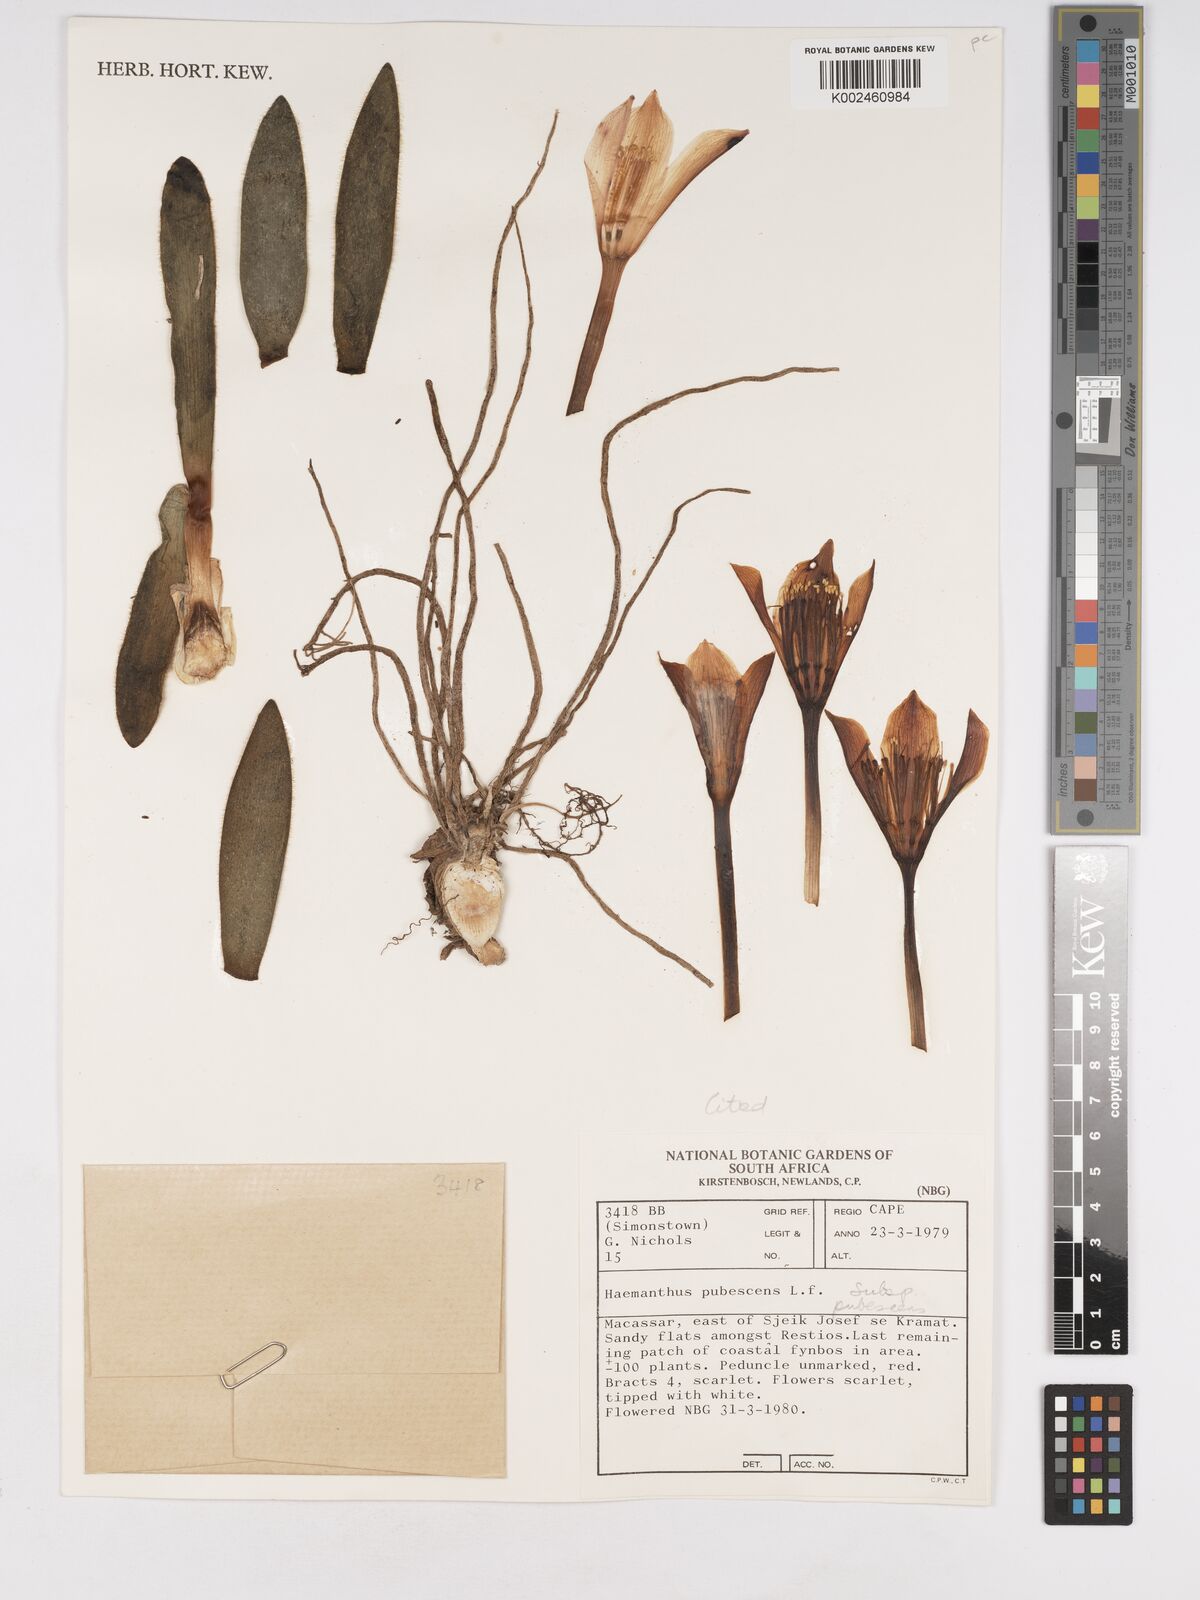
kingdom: Plantae
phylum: Tracheophyta
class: Liliopsida
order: Asparagales
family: Amaryllidaceae
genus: Haemanthus
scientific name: Haemanthus pubescens
